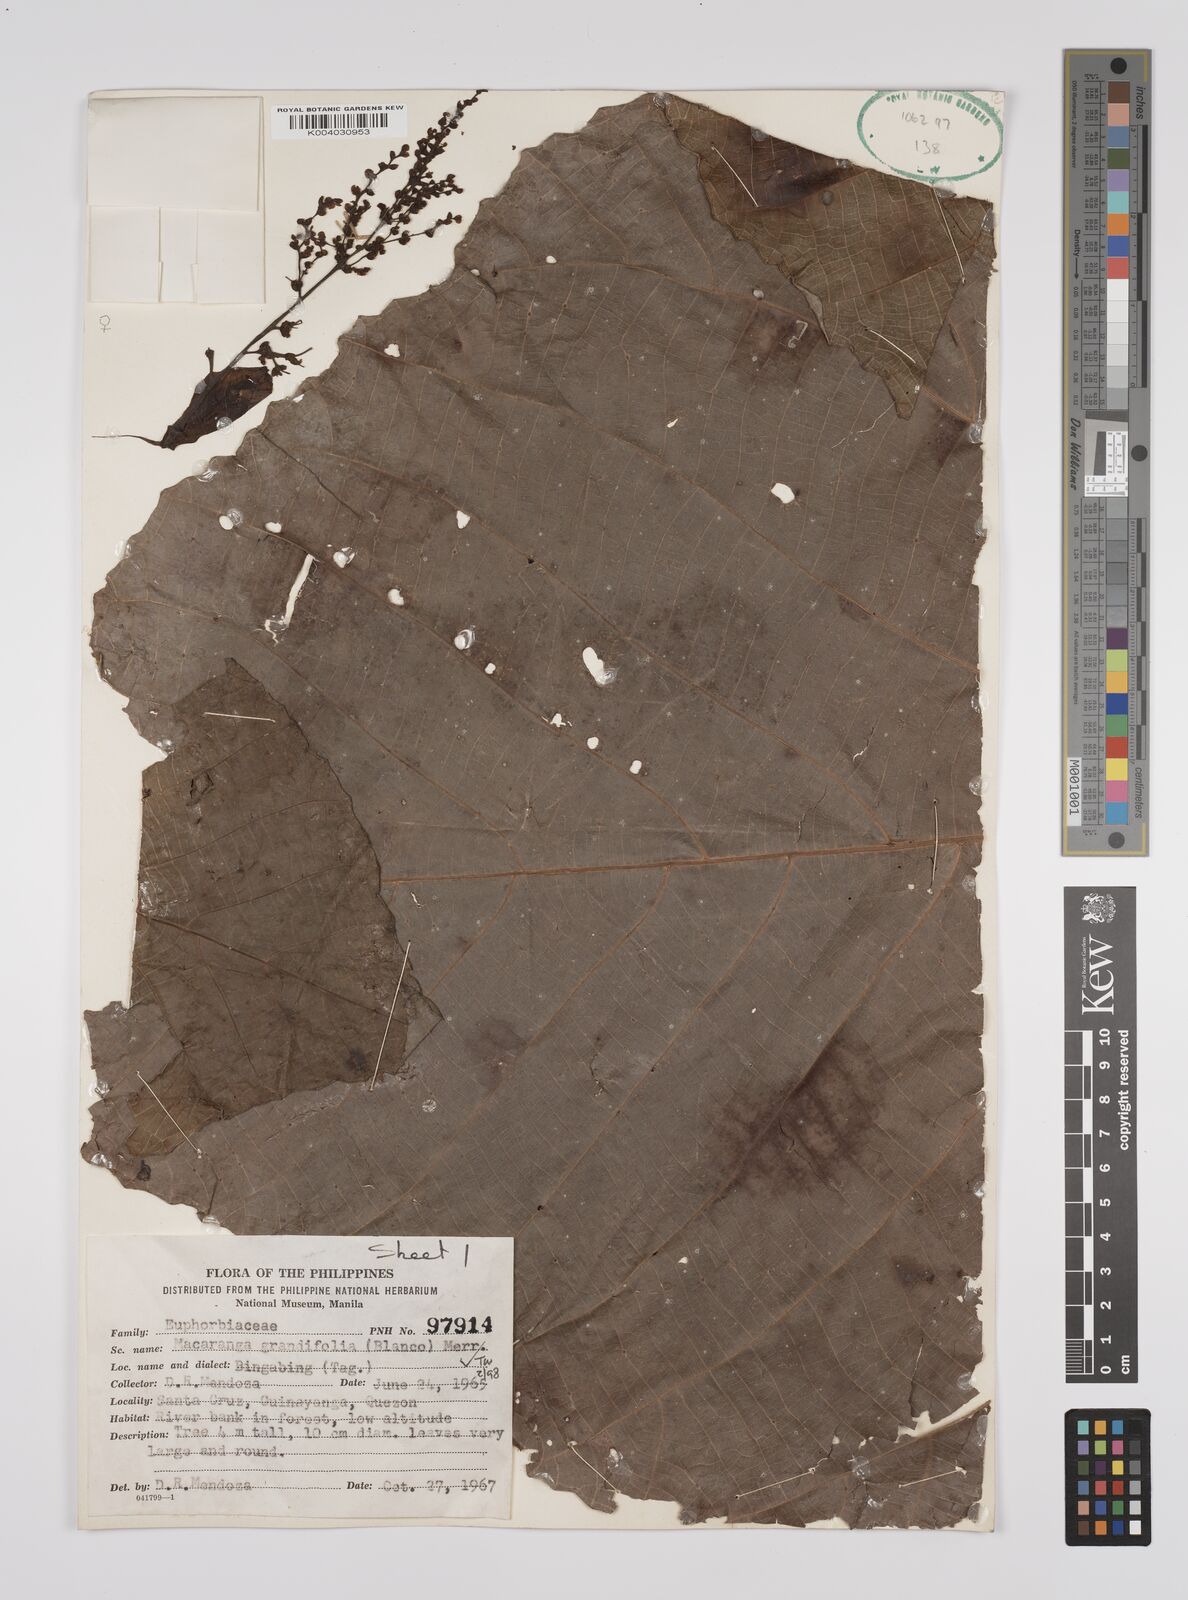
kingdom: Plantae
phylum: Tracheophyta
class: Magnoliopsida
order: Malpighiales
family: Euphorbiaceae
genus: Macaranga
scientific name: Macaranga grandifolia
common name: Coraltree
